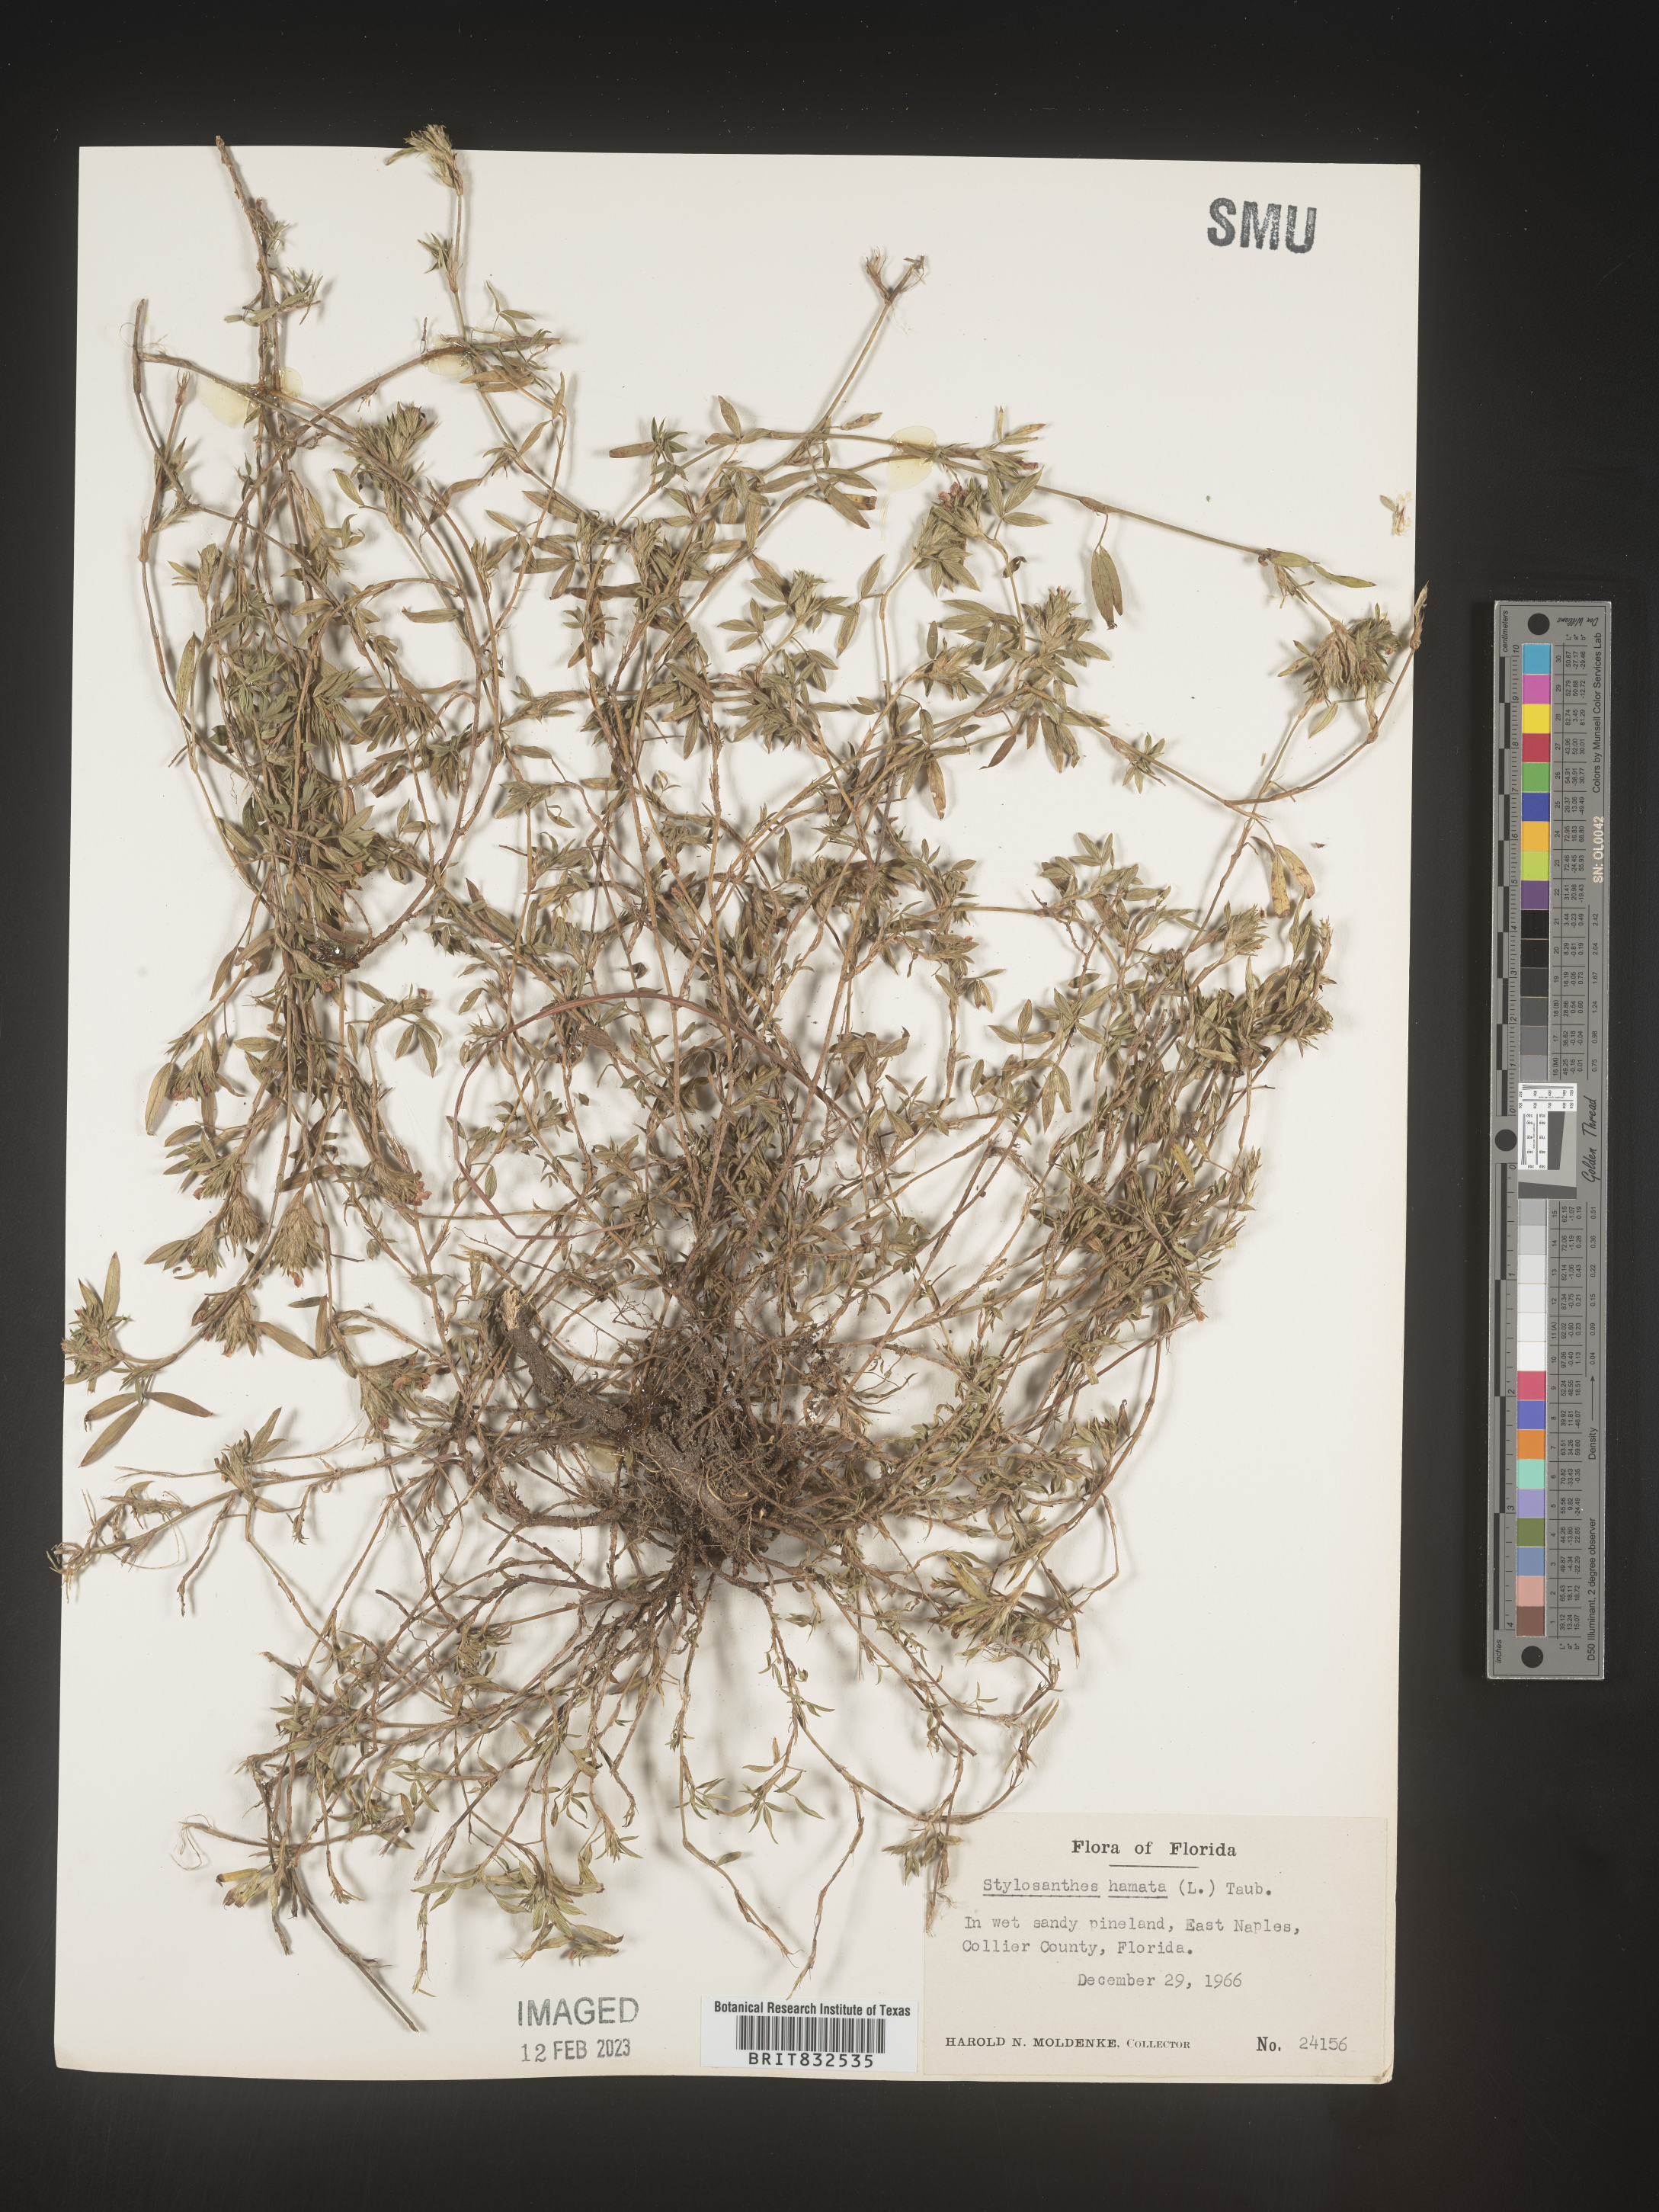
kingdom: Plantae
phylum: Tracheophyta
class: Magnoliopsida
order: Fabales
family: Fabaceae
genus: Stylosanthes
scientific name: Stylosanthes
